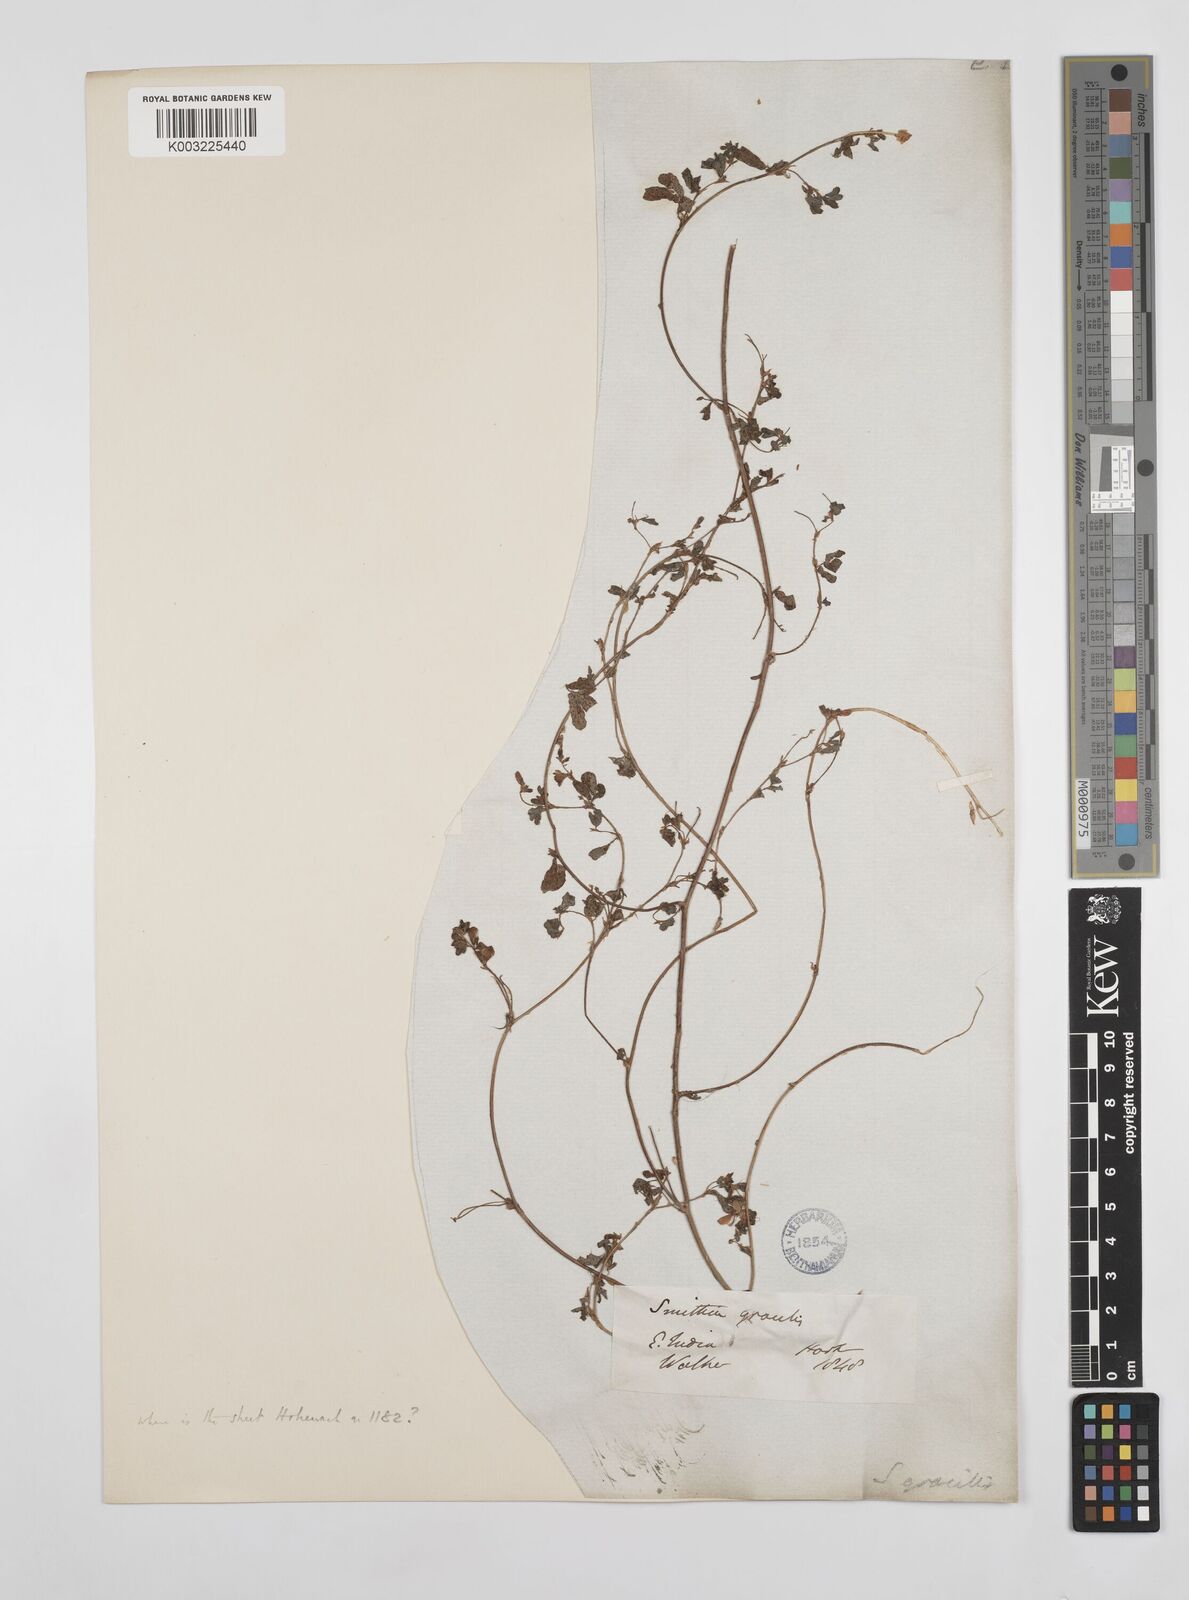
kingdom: Plantae
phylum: Tracheophyta
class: Magnoliopsida
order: Fabales
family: Fabaceae
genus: Smithia
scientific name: Smithia gracilis
